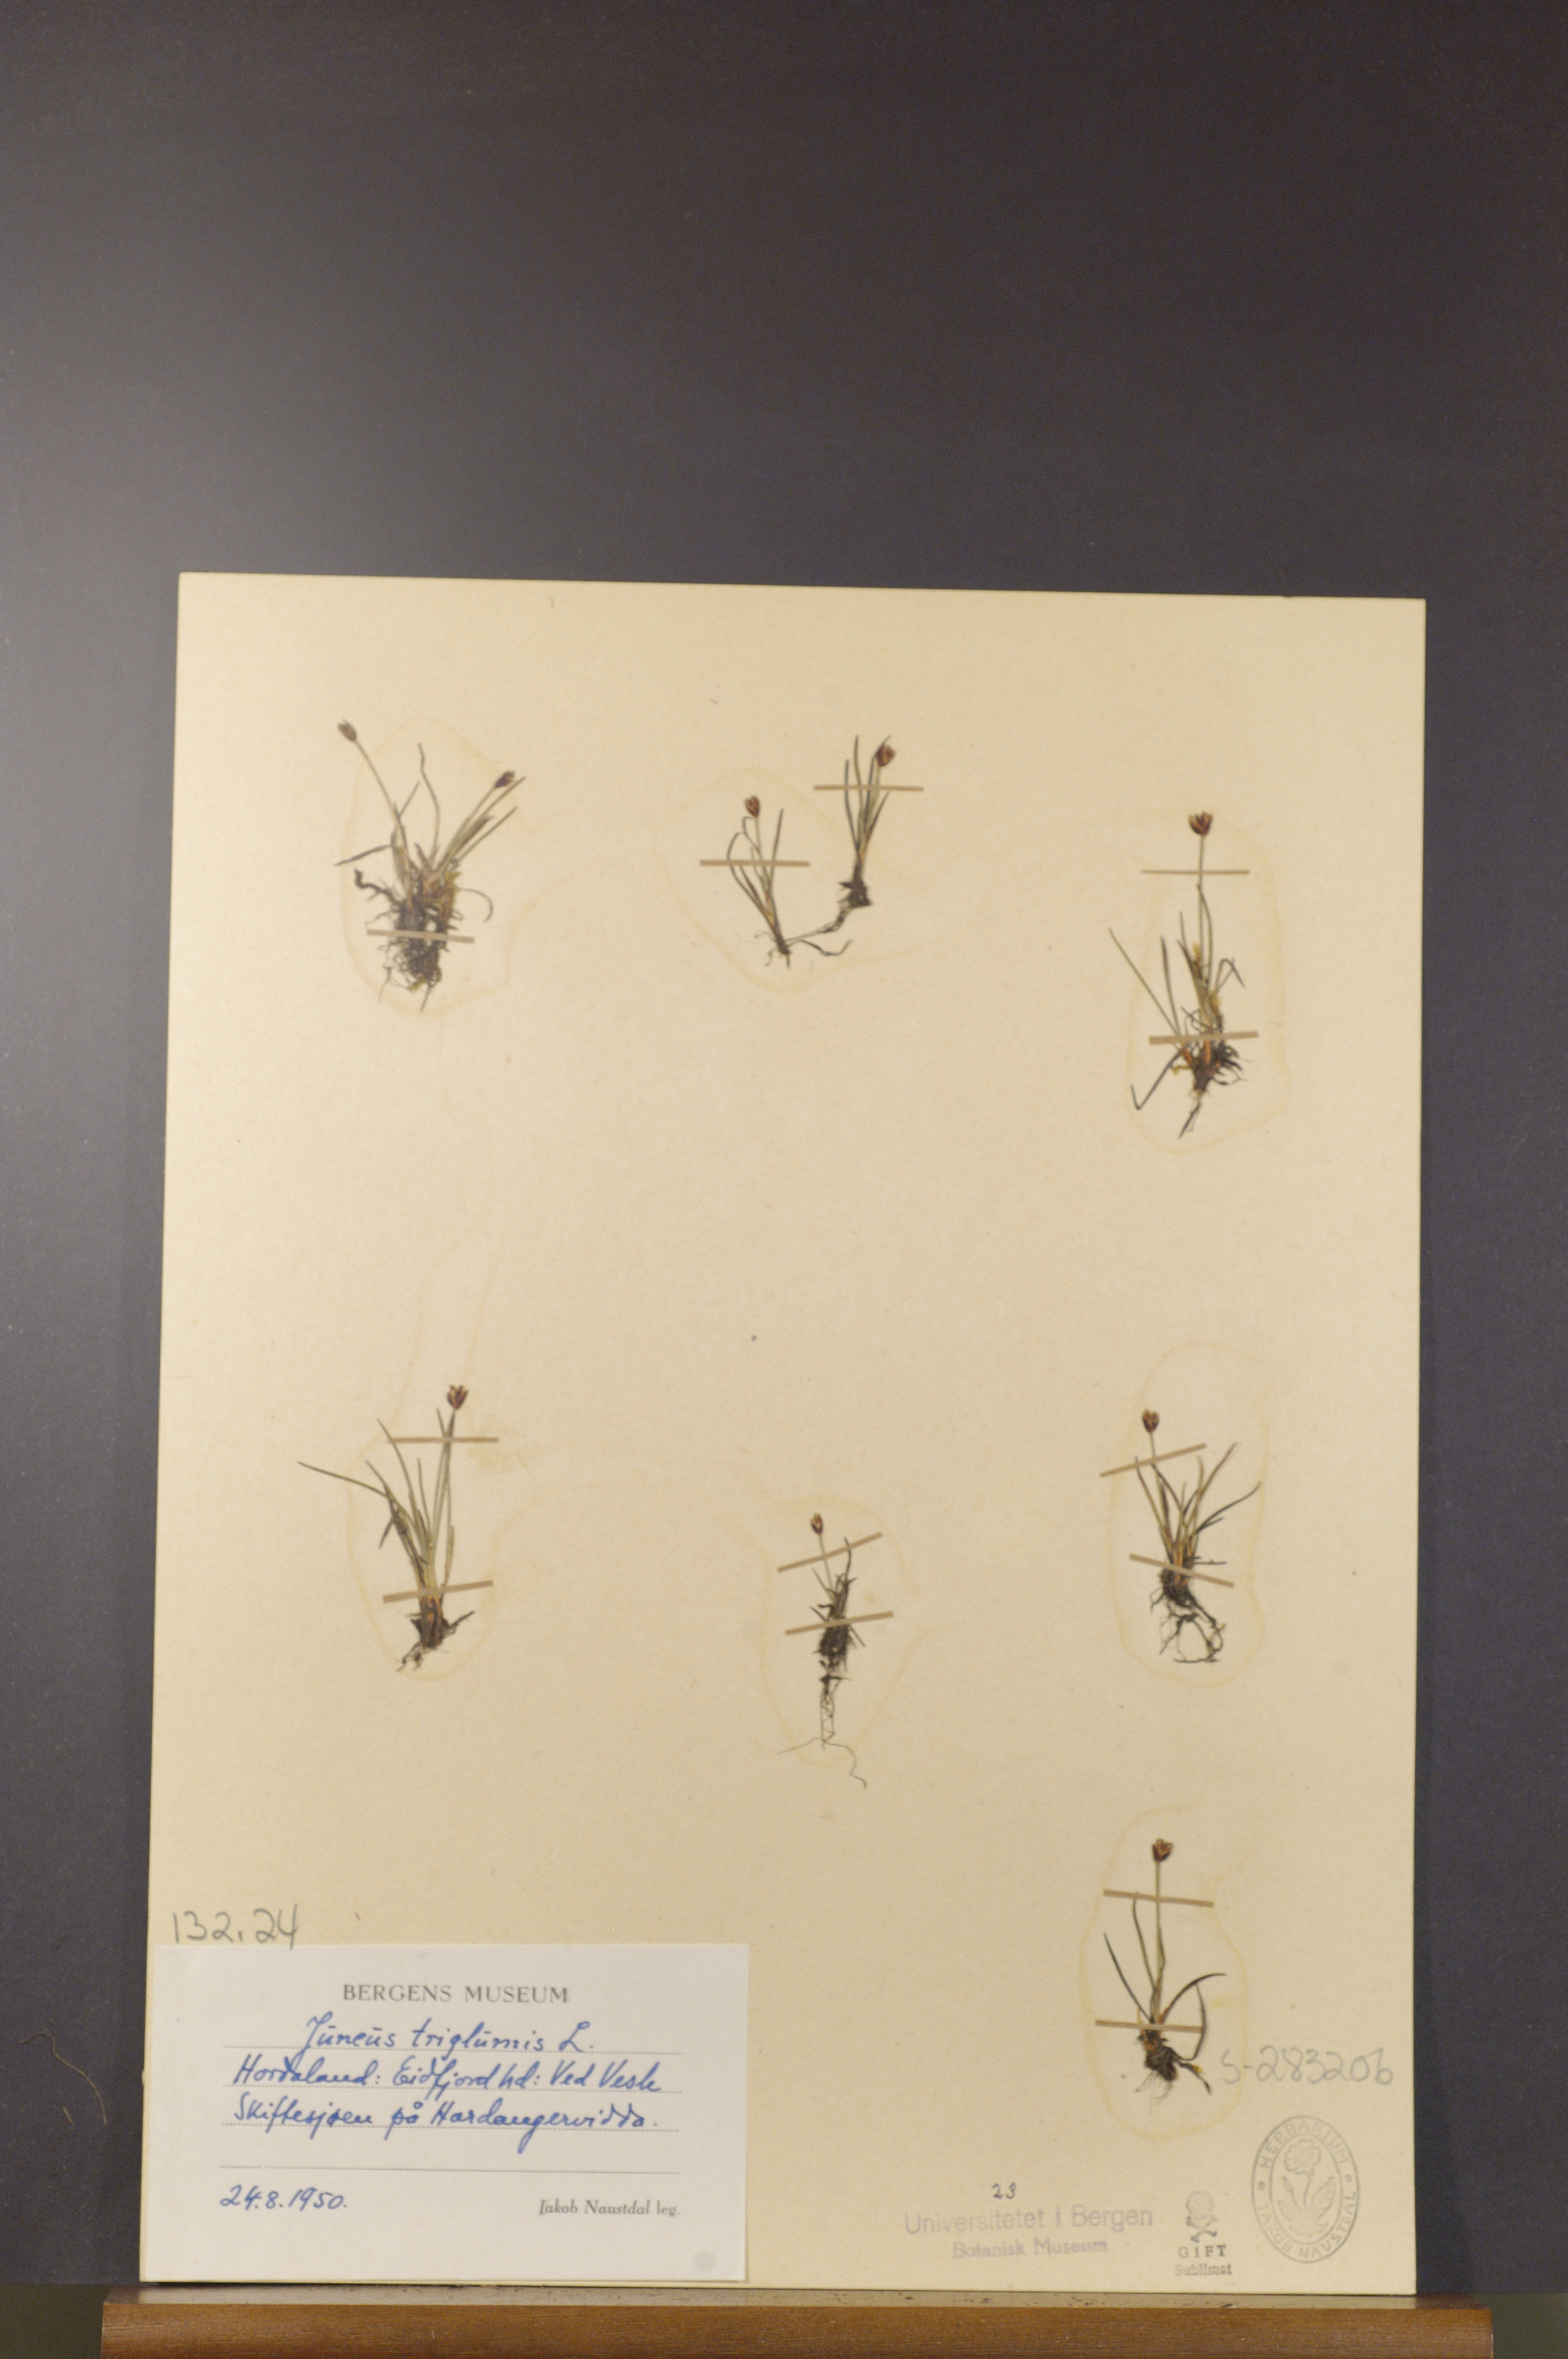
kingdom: Plantae
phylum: Tracheophyta
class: Liliopsida
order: Poales
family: Juncaceae
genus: Juncus
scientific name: Juncus triglumis
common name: Three-flowered rush
